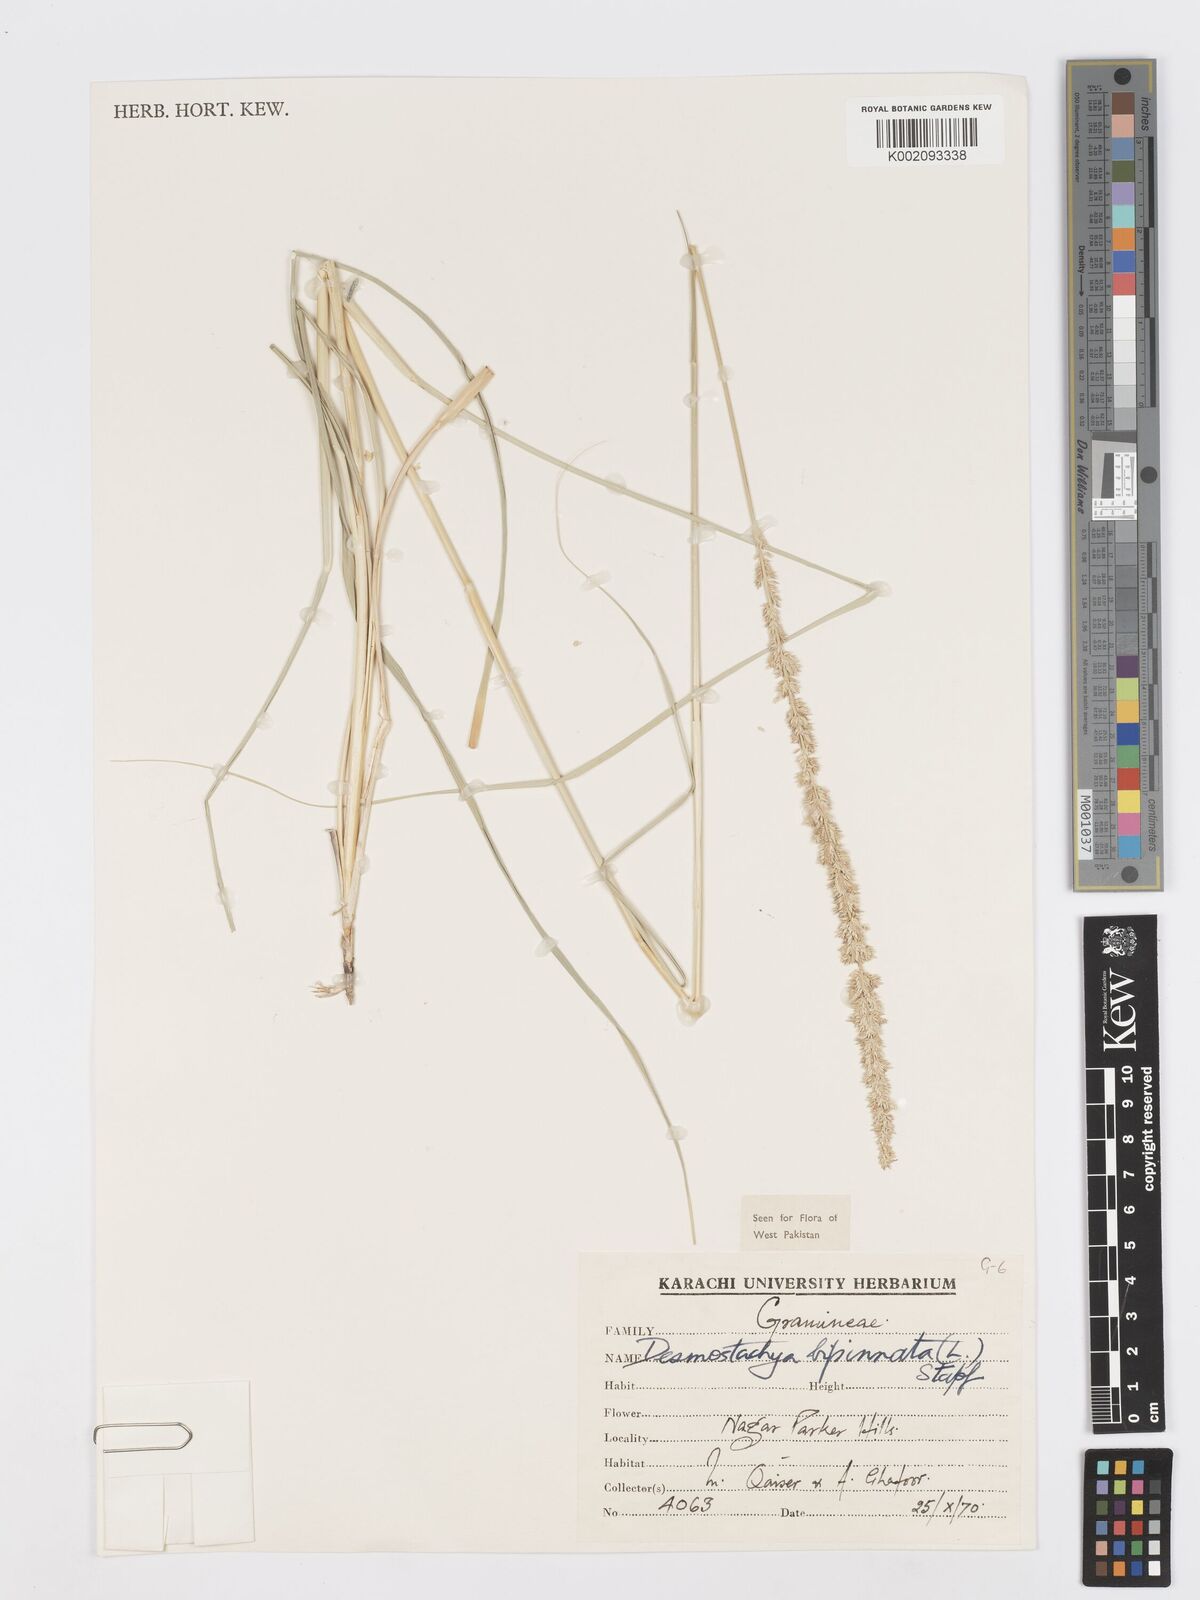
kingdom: Plantae
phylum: Tracheophyta
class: Liliopsida
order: Poales
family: Poaceae
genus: Desmostachya
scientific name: Desmostachya bipinnata
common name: Crowfoot grass
